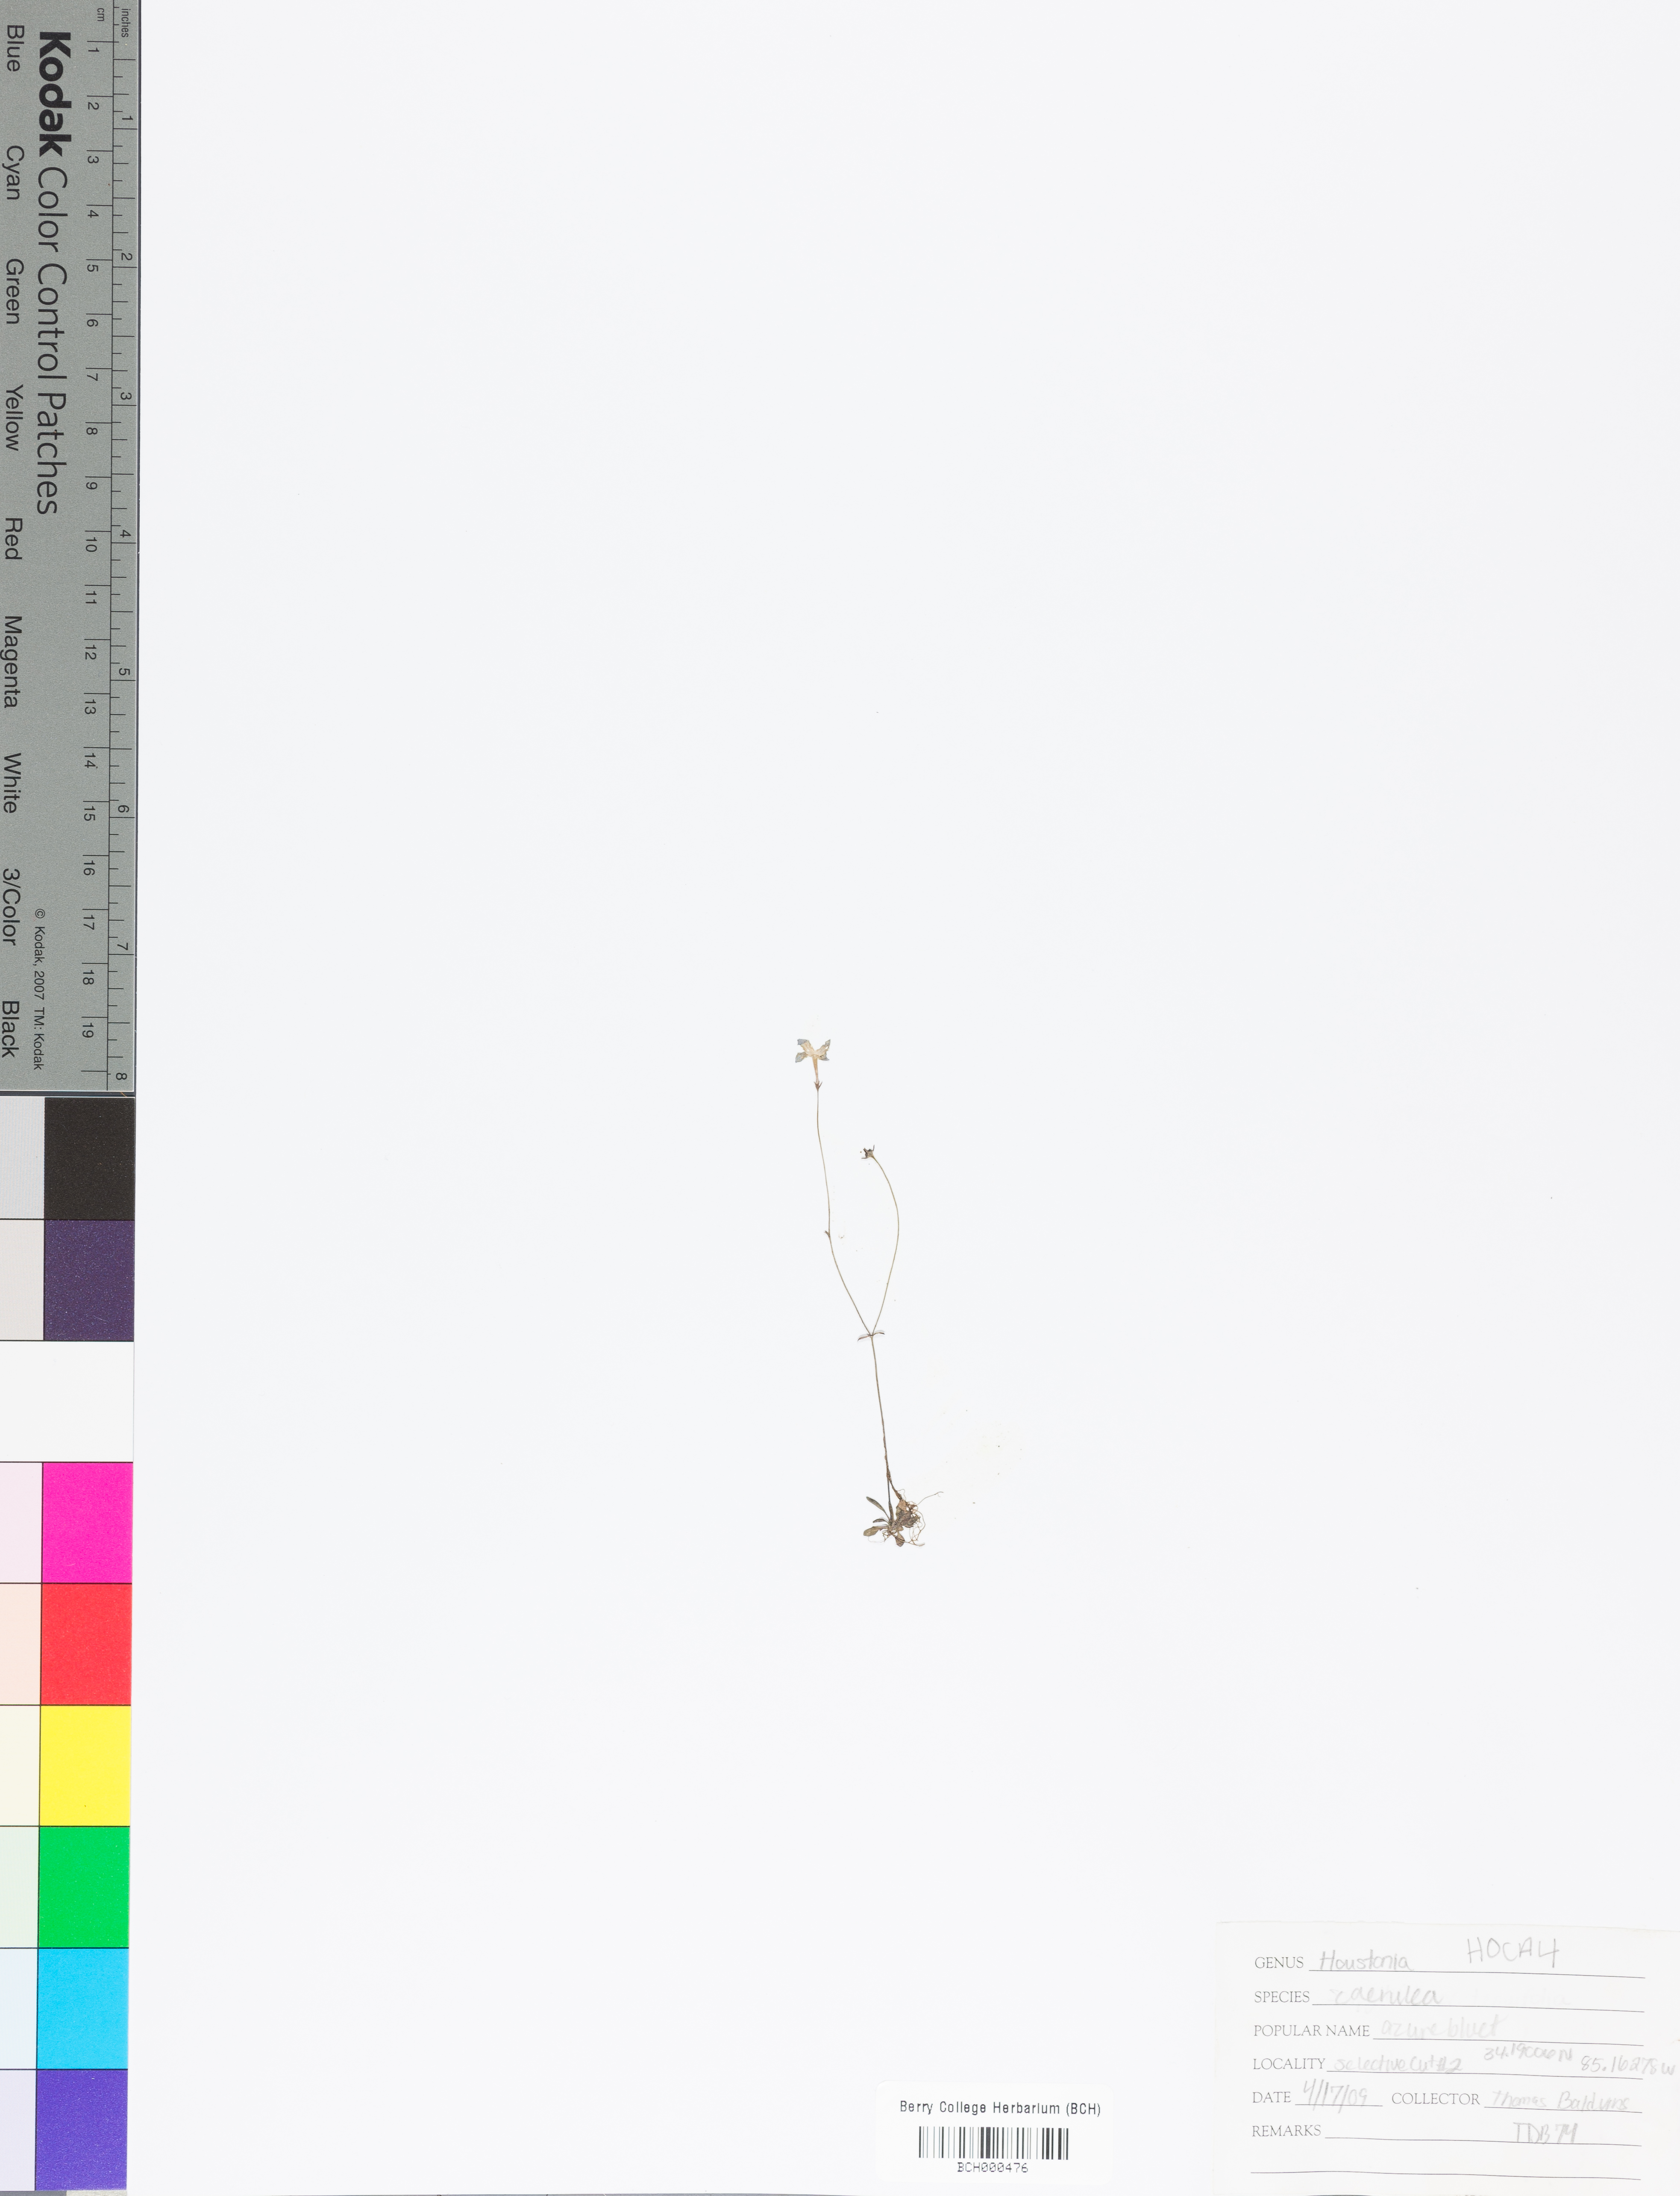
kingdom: Plantae
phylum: Tracheophyta
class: Magnoliopsida
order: Gentianales
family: Rubiaceae
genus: Houstonia
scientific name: Houstonia caerulea
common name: Bluets
